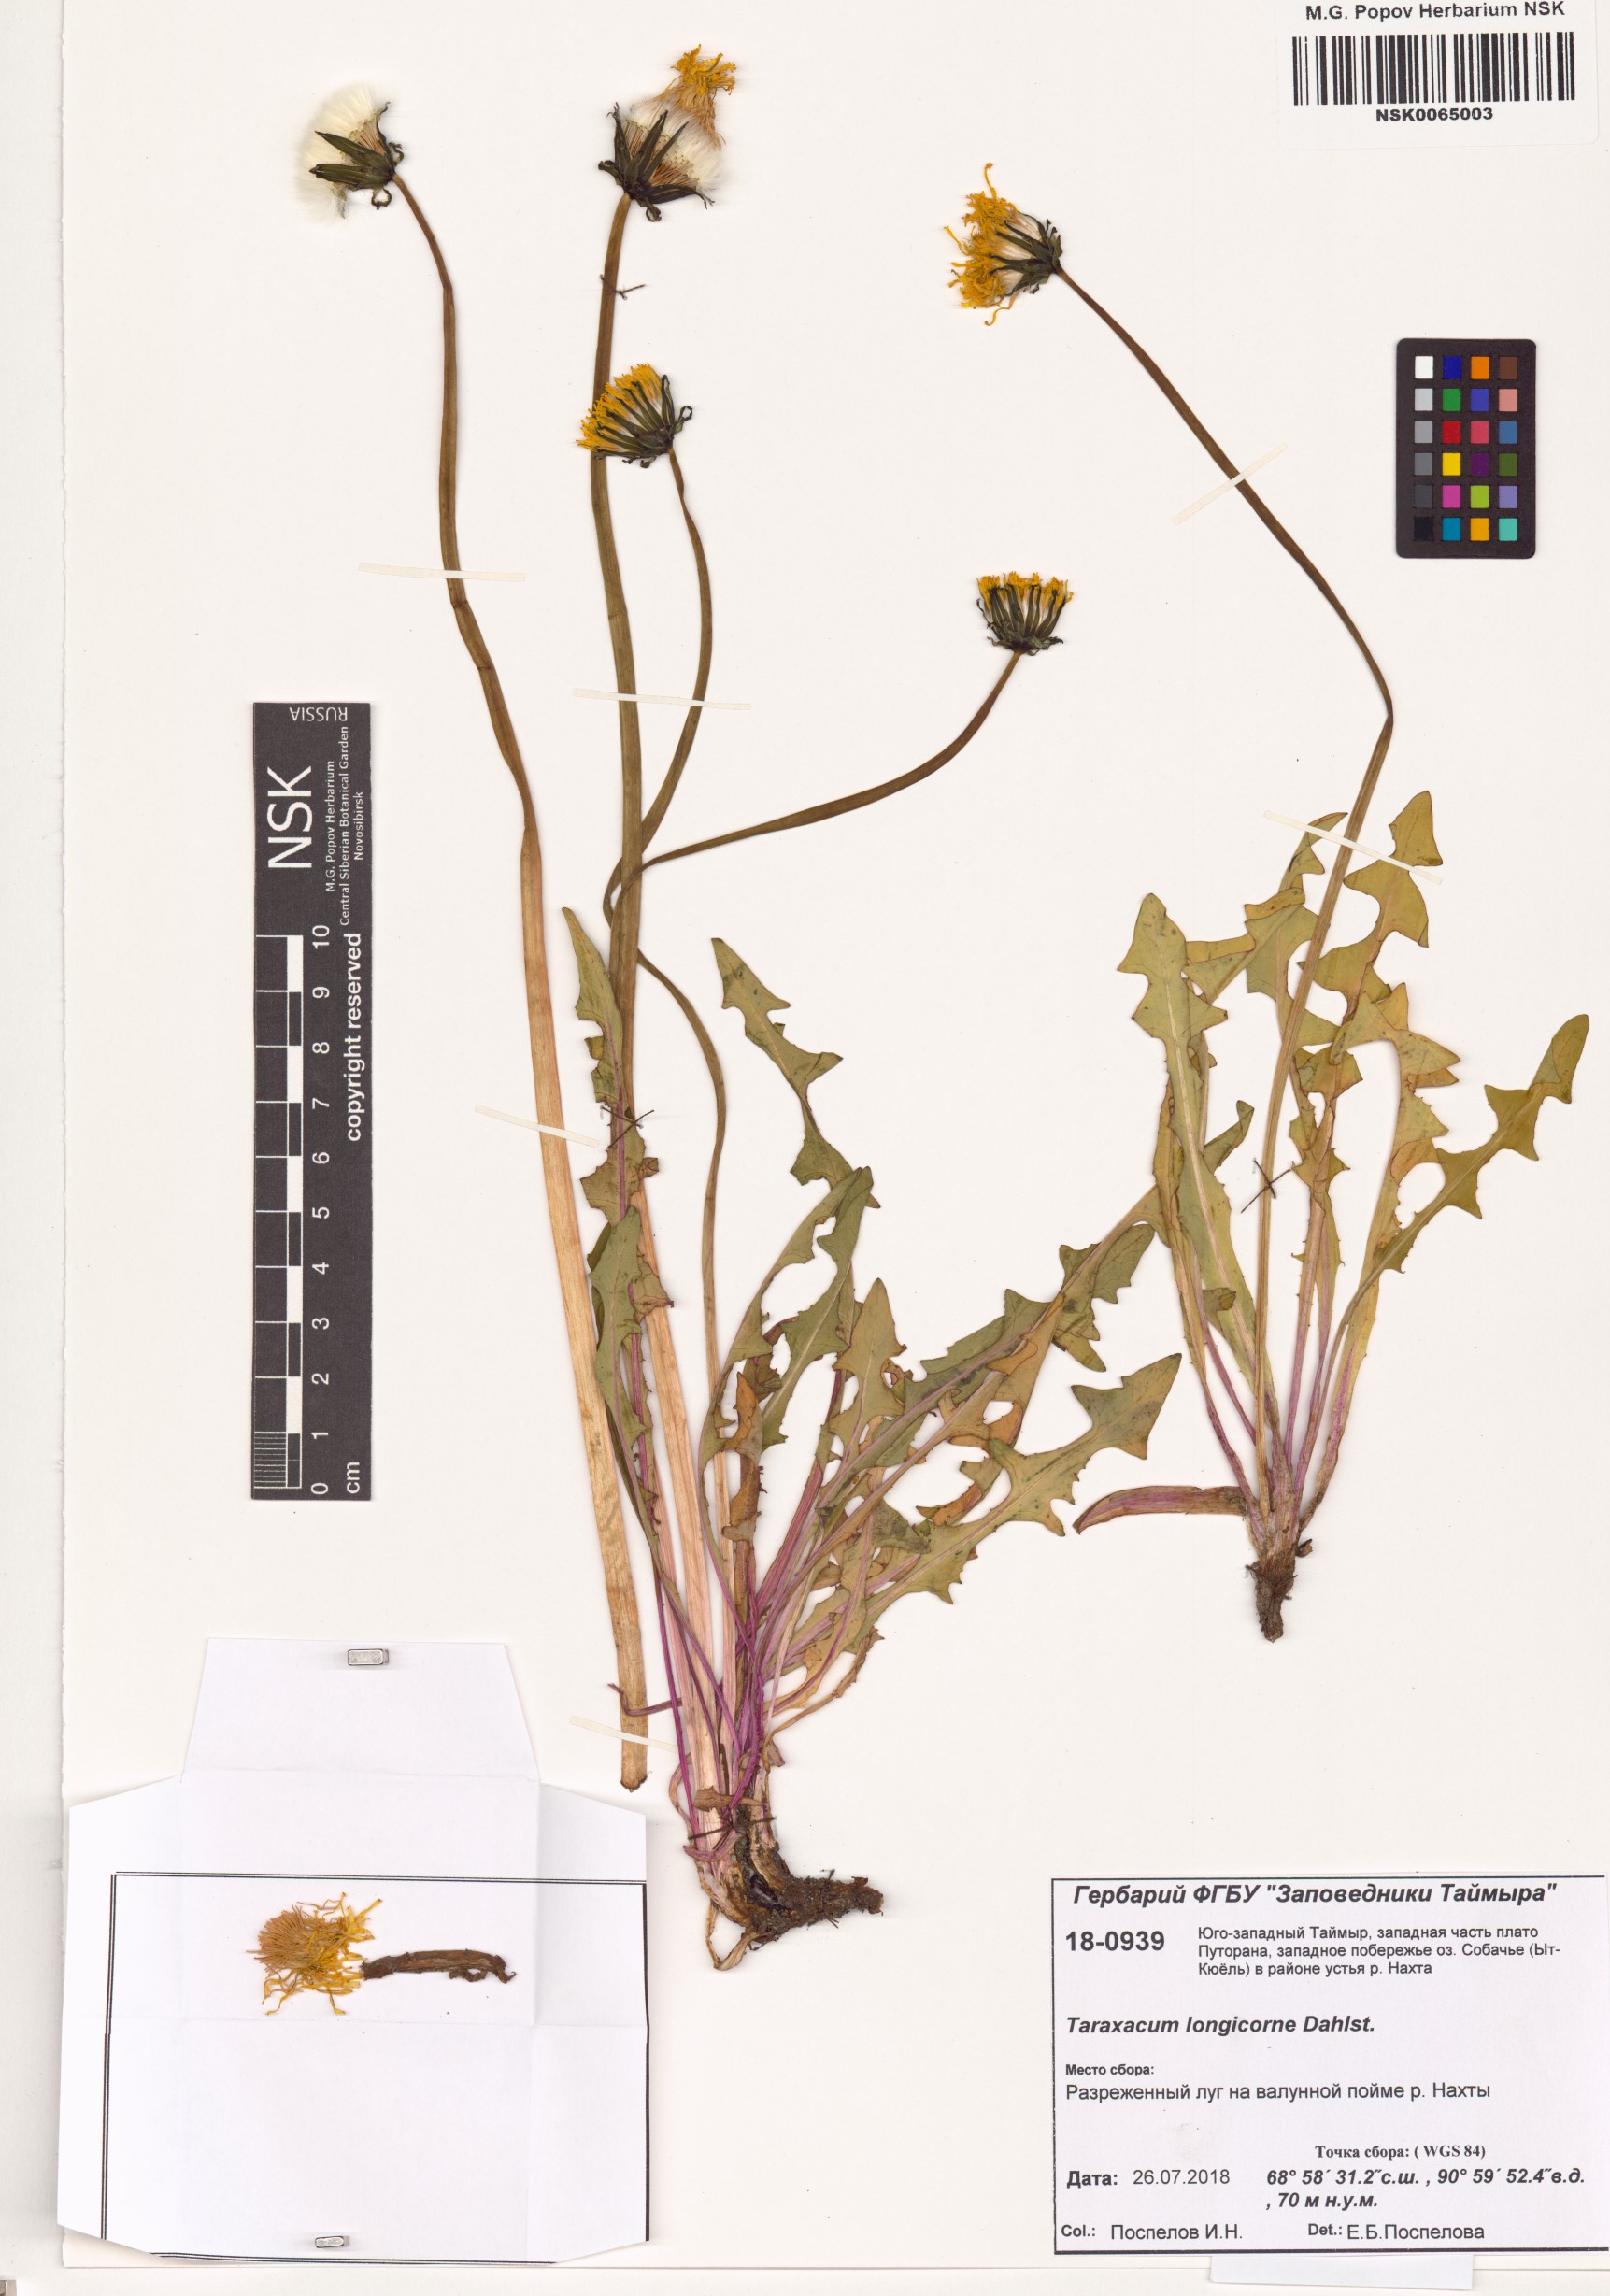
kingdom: Plantae
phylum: Tracheophyta
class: Magnoliopsida
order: Asterales
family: Asteraceae
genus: Taraxacum
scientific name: Taraxacum longicorne
